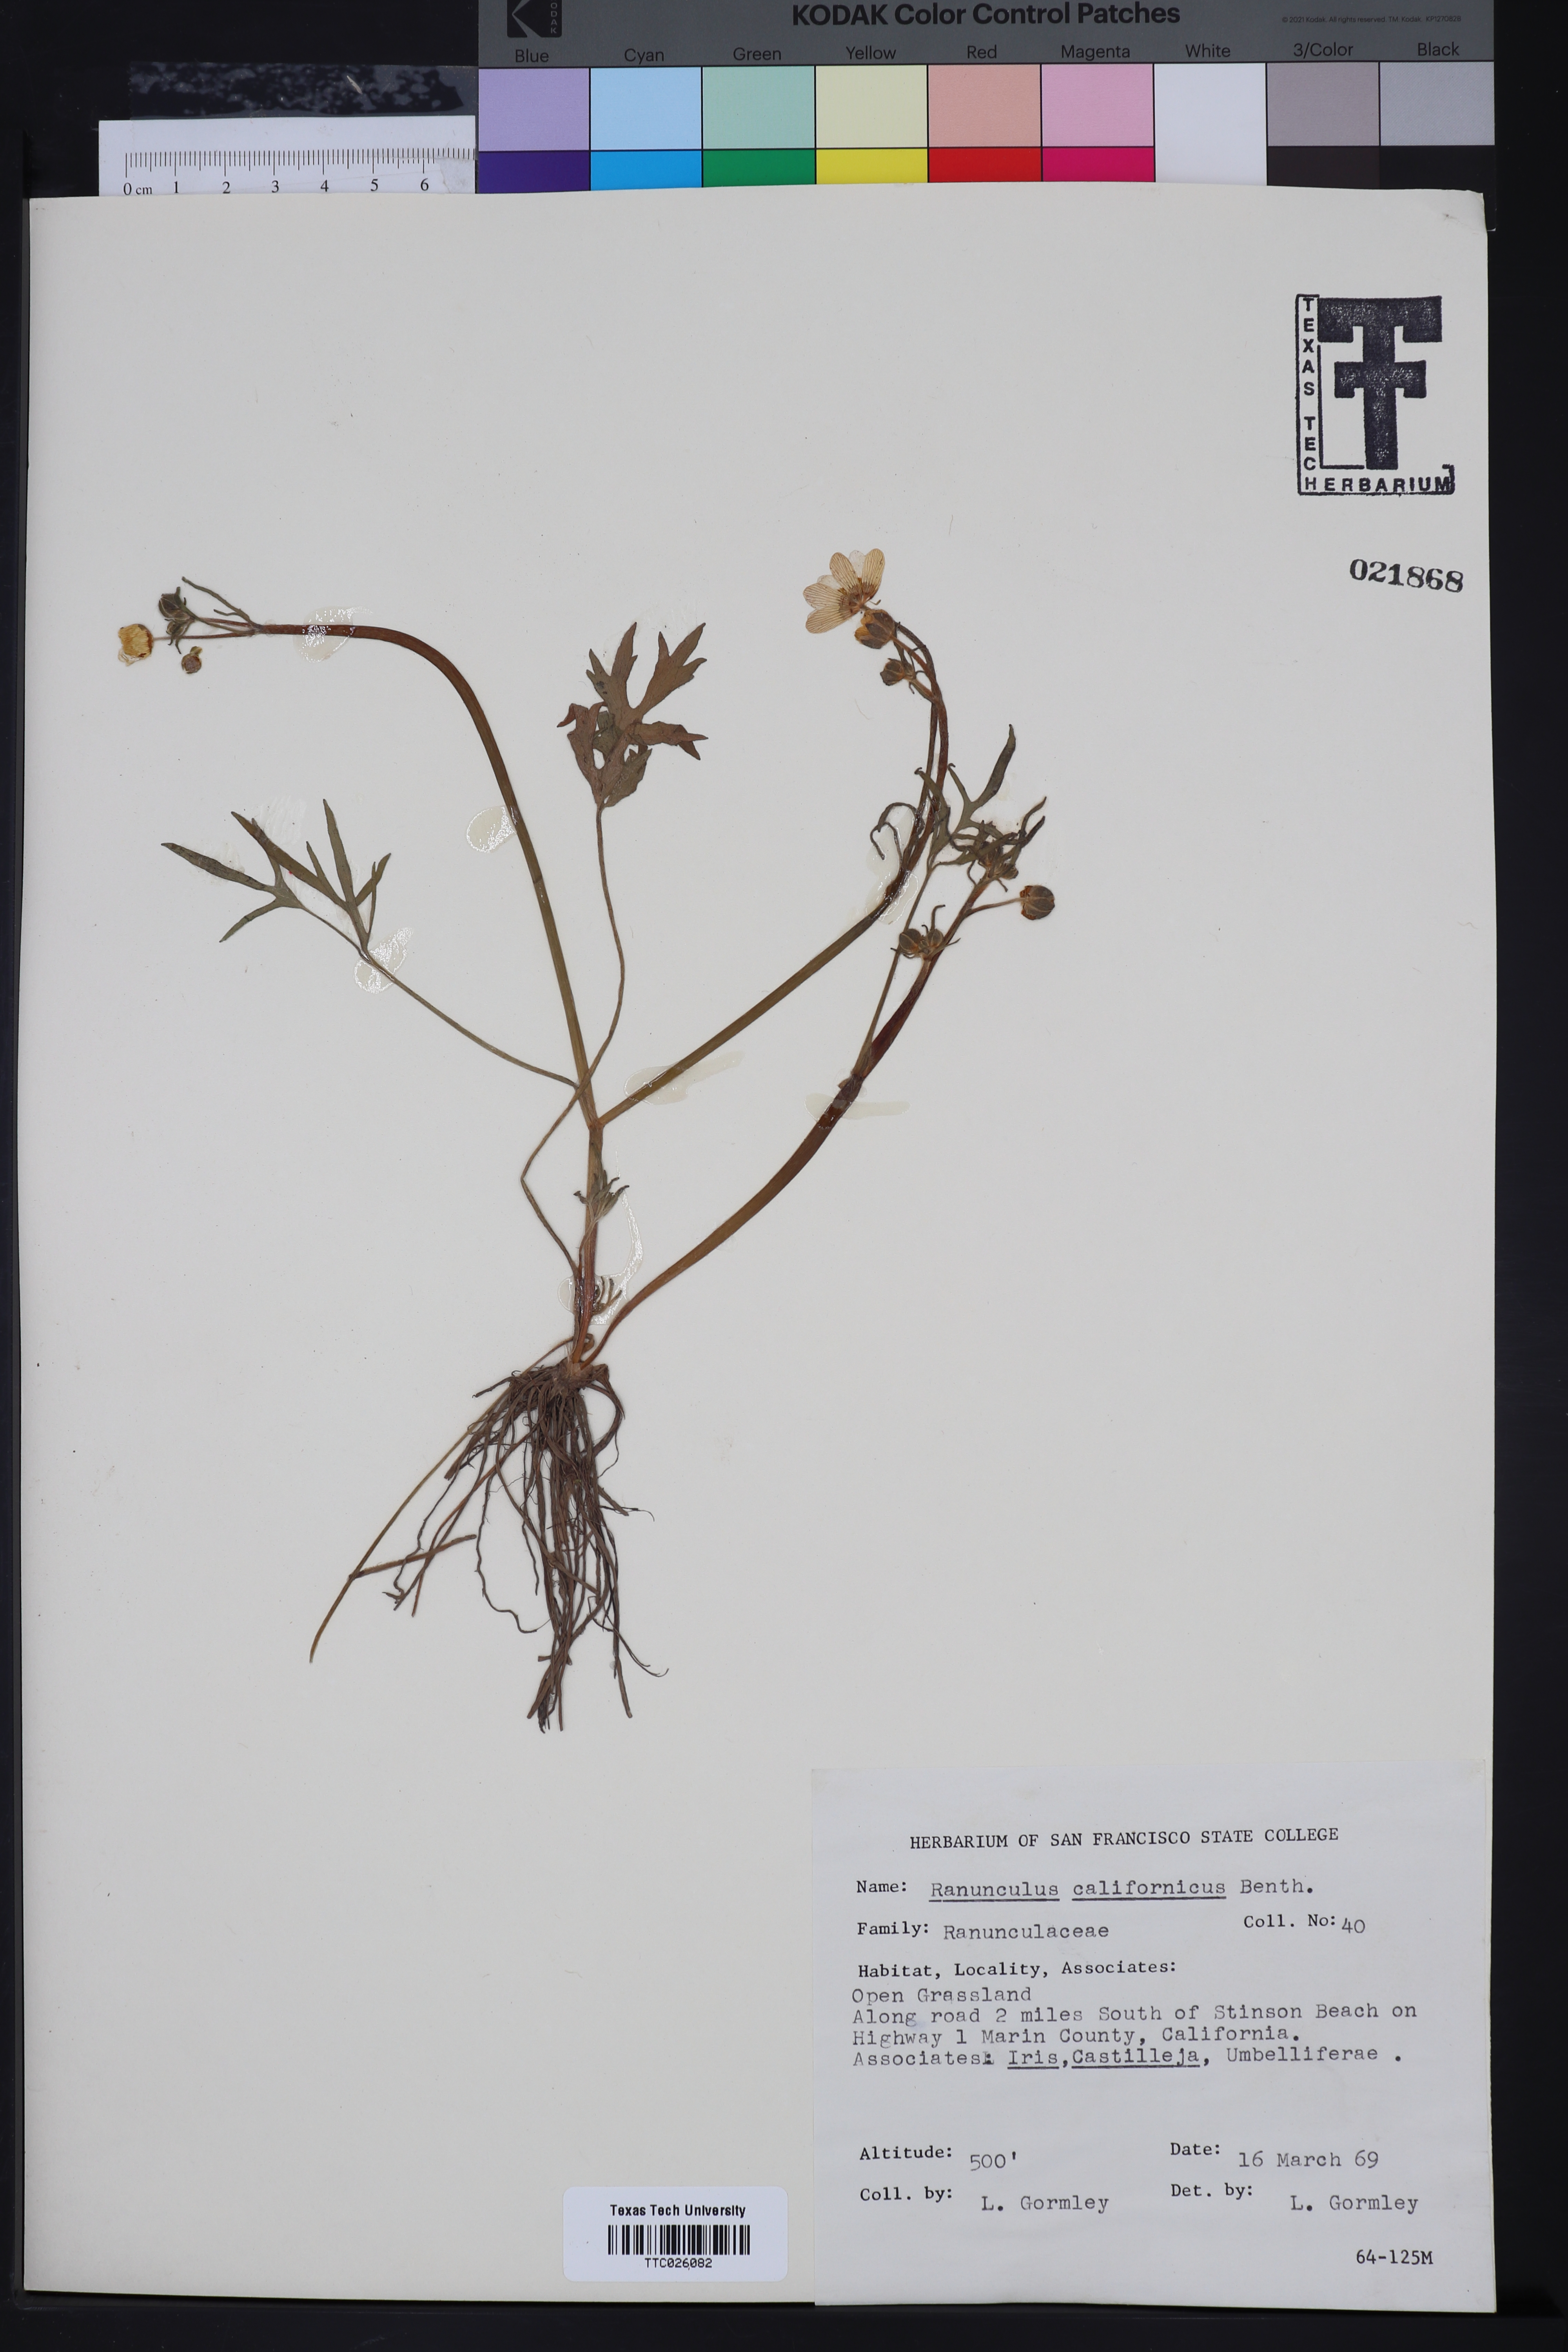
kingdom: Plantae
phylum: Tracheophyta
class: Magnoliopsida
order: Ranunculales
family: Ranunculaceae
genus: Ranunculus
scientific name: Ranunculus californicus
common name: California buttercup
